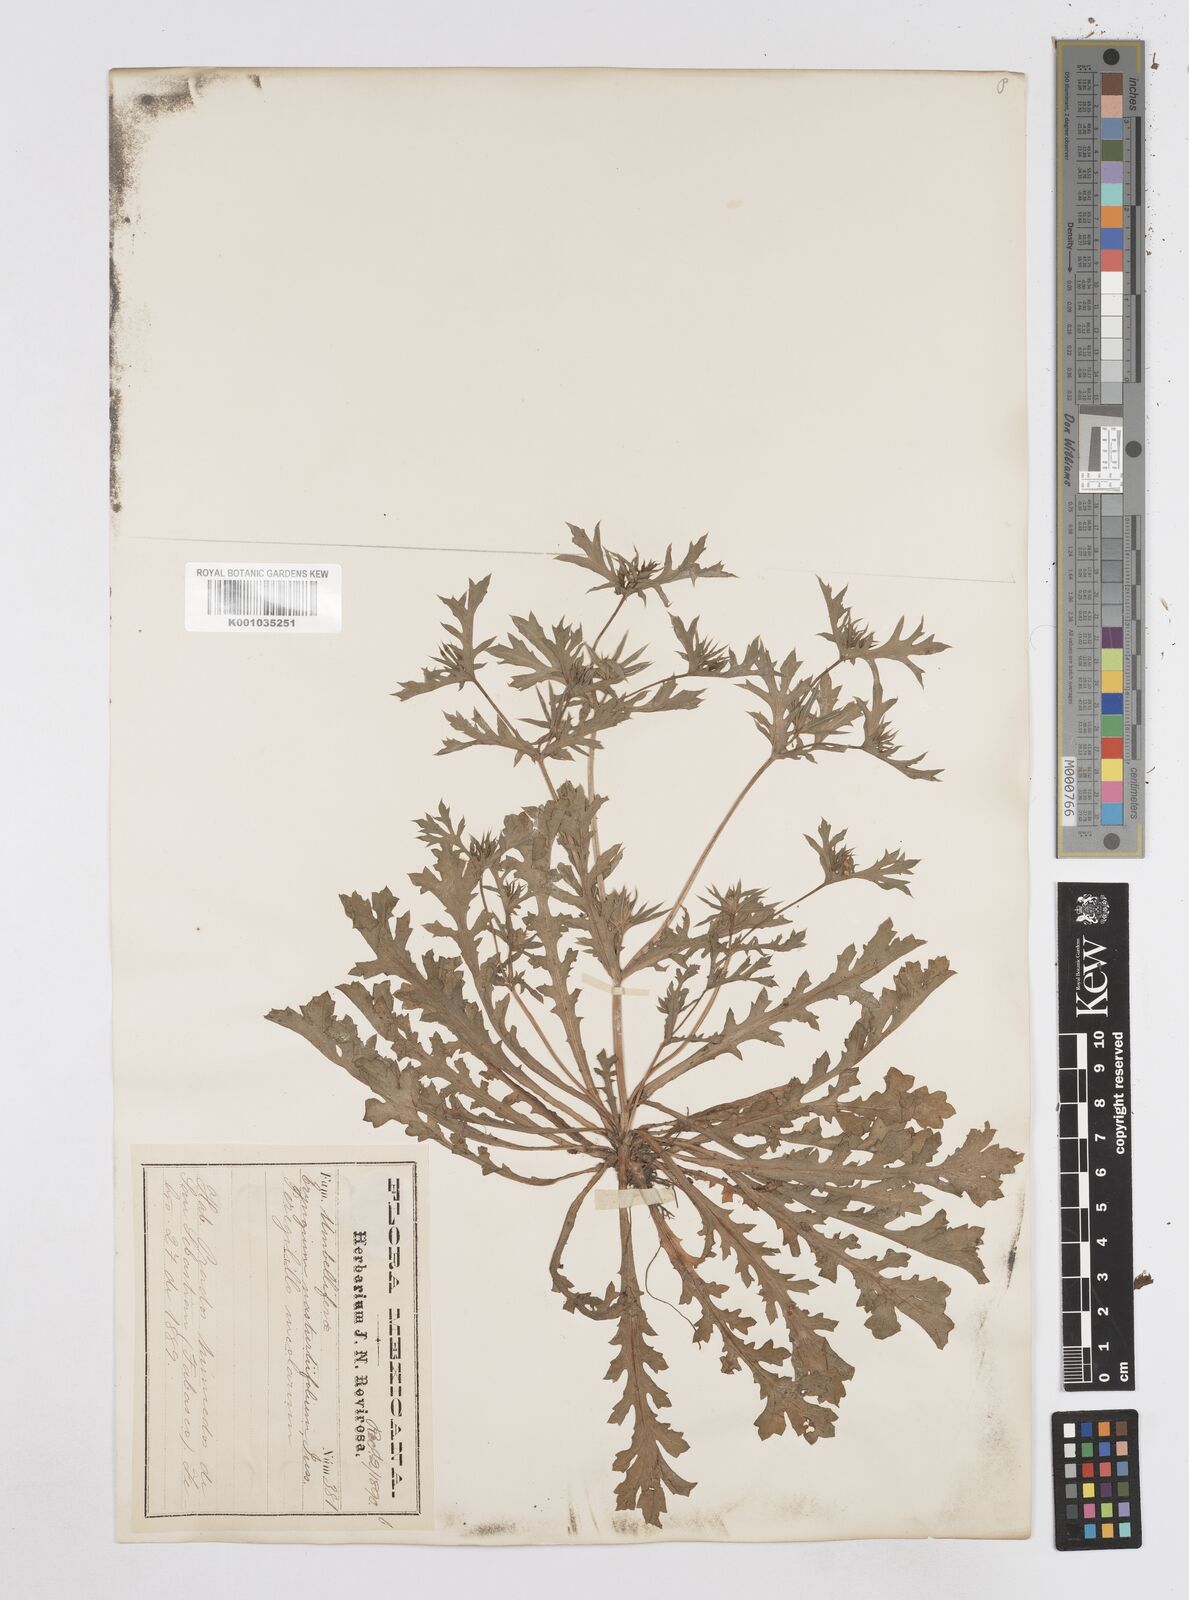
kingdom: Plantae
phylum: Tracheophyta
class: Magnoliopsida
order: Apiales
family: Apiaceae
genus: Eryngium
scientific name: Eryngium nasturtiifolium
